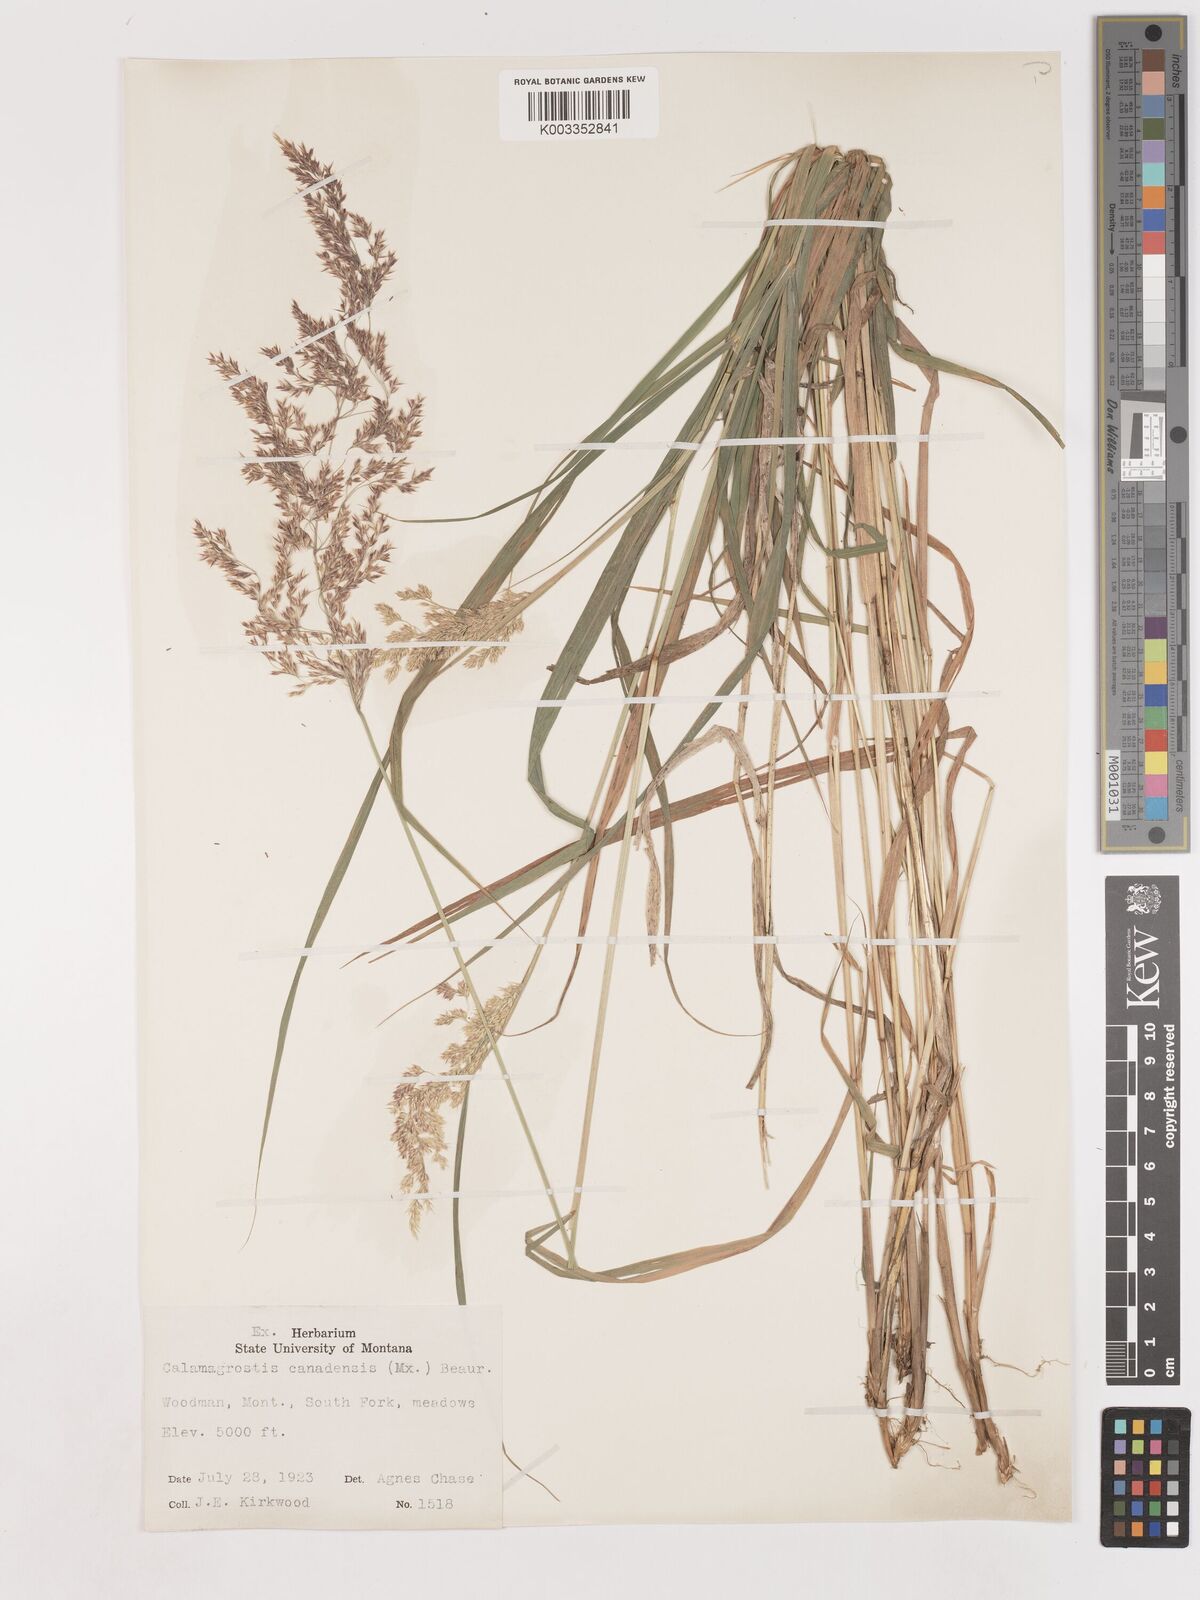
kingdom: Plantae
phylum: Tracheophyta
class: Liliopsida
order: Poales
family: Poaceae
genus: Calamagrostis
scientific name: Calamagrostis canadensis
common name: Canada bluejoint
